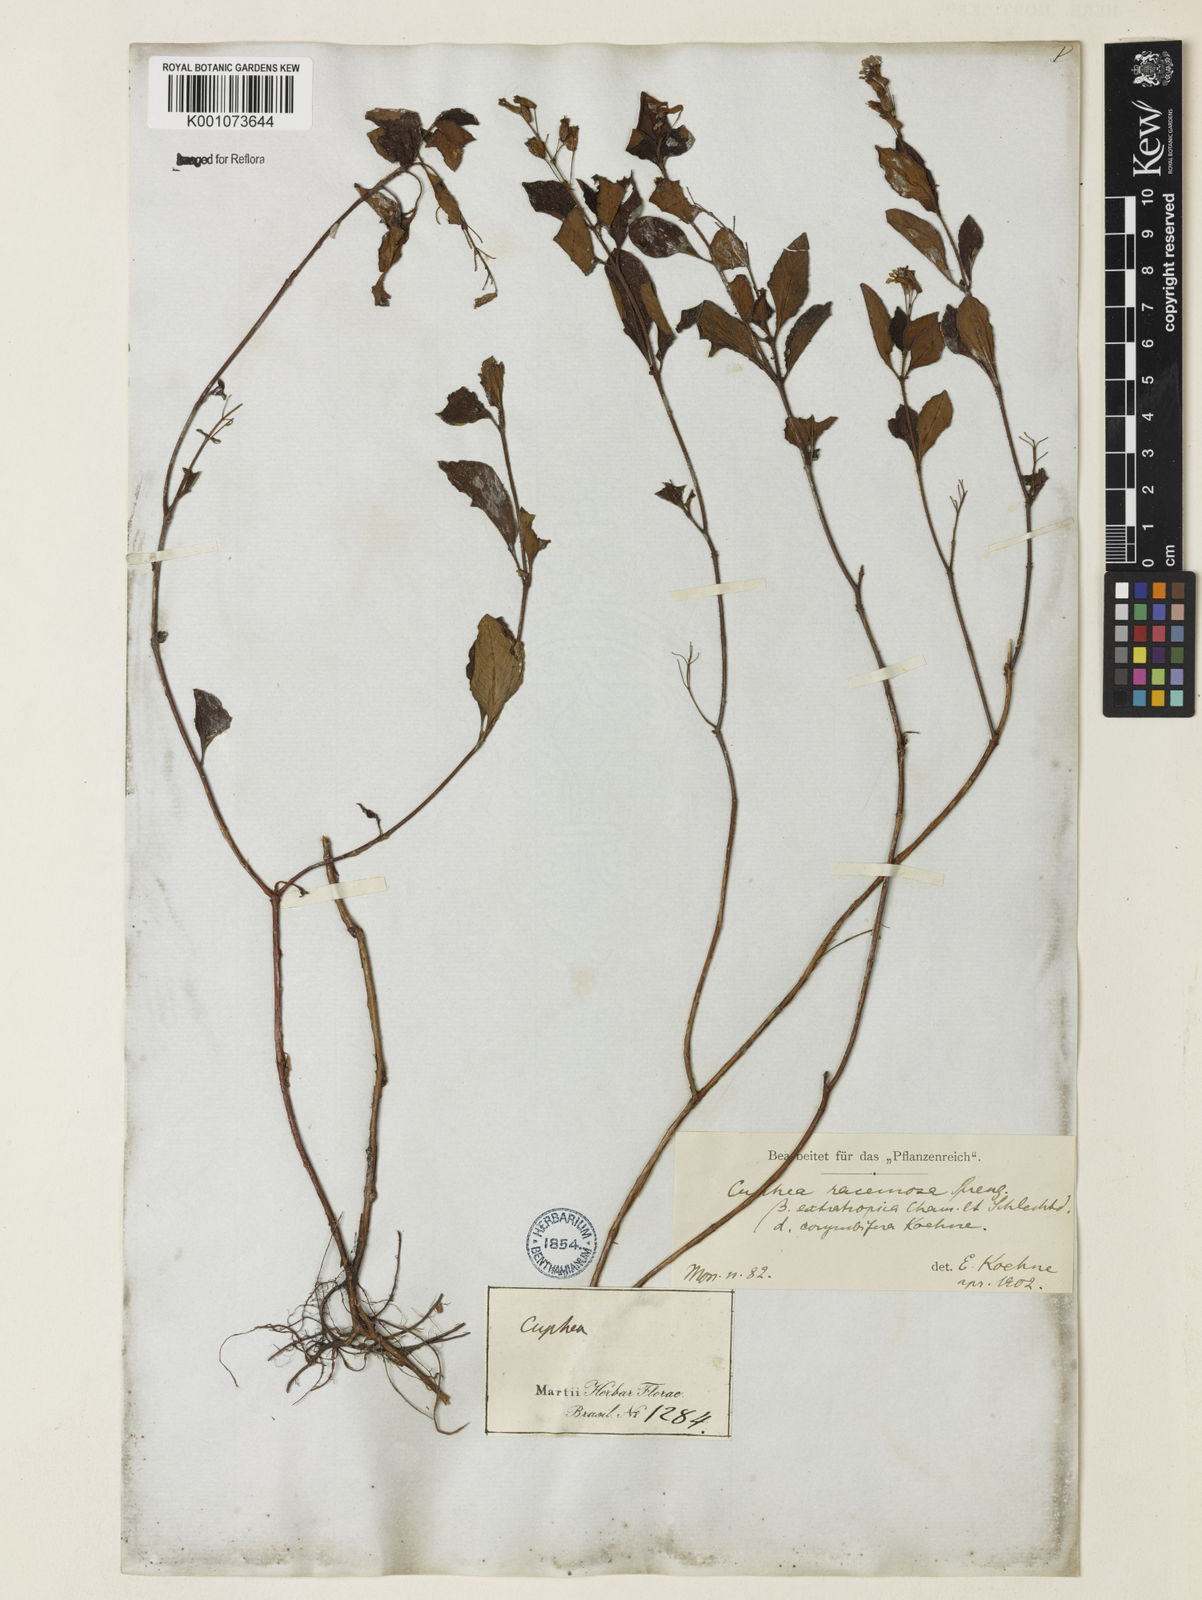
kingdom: Plantae
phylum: Tracheophyta
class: Magnoliopsida
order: Myrtales
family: Lythraceae
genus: Cuphea
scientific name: Cuphea racemosa
